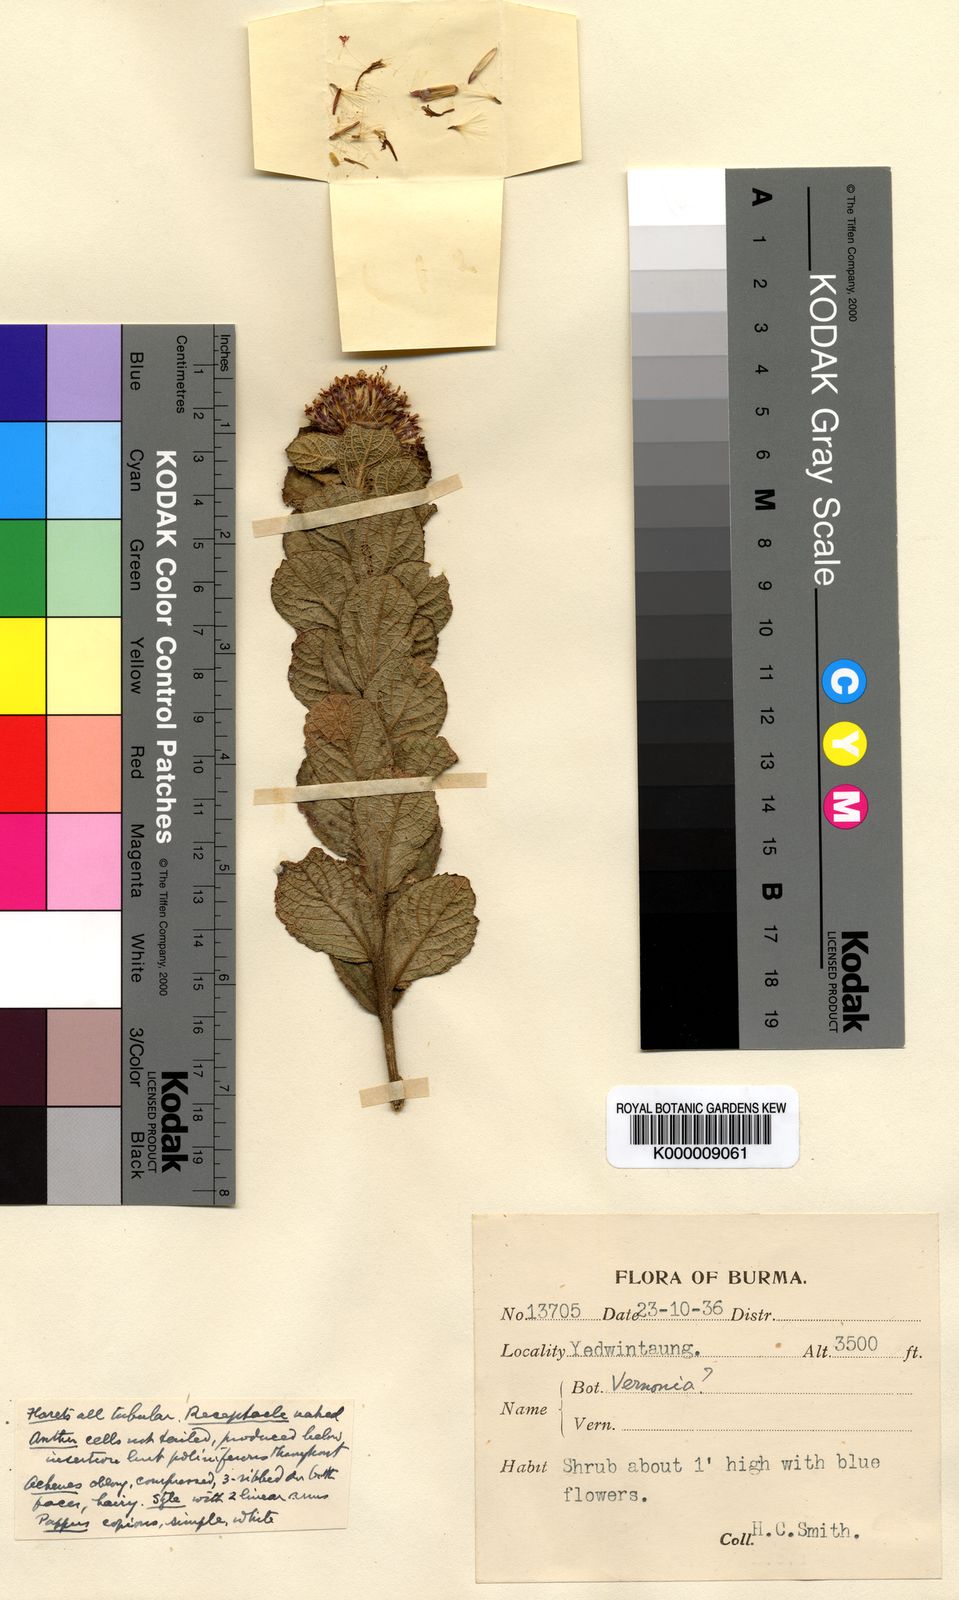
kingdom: Plantae
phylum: Tracheophyta
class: Magnoliopsida
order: Asterales
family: Asteraceae
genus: Vernonia
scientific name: Vernonia
